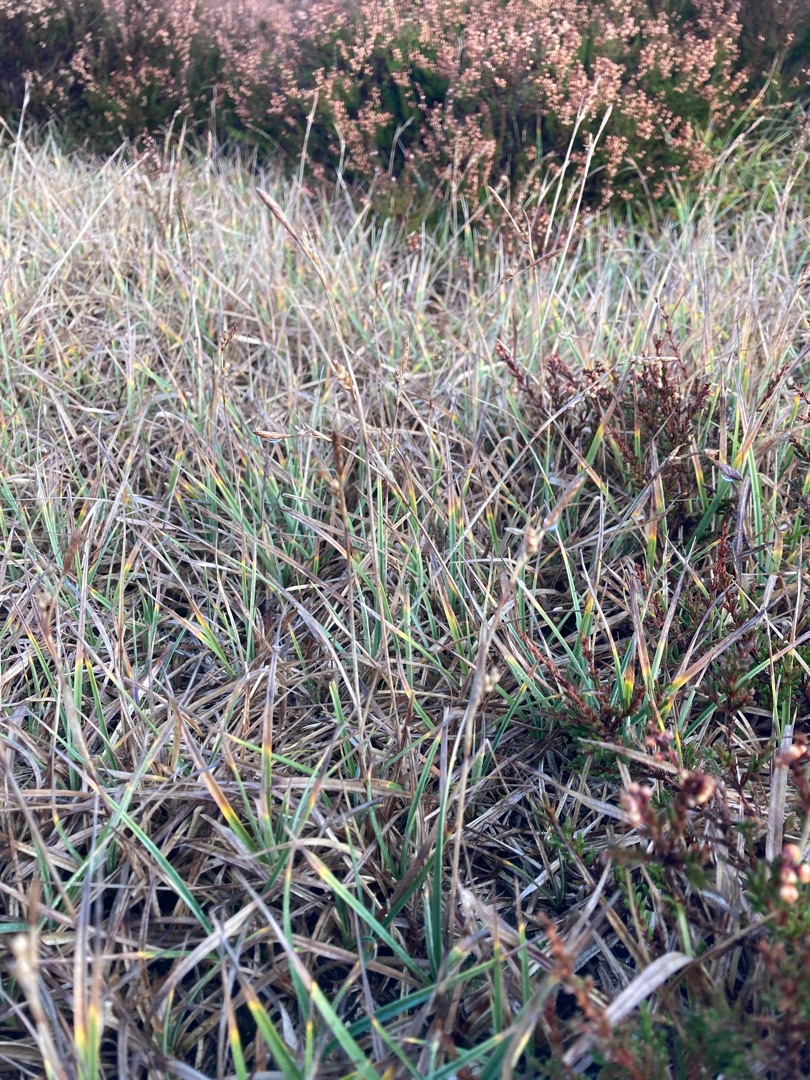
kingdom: Plantae
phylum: Tracheophyta
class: Liliopsida
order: Poales
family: Cyperaceae
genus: Carex
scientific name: Carex panicea
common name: Hirse-star
